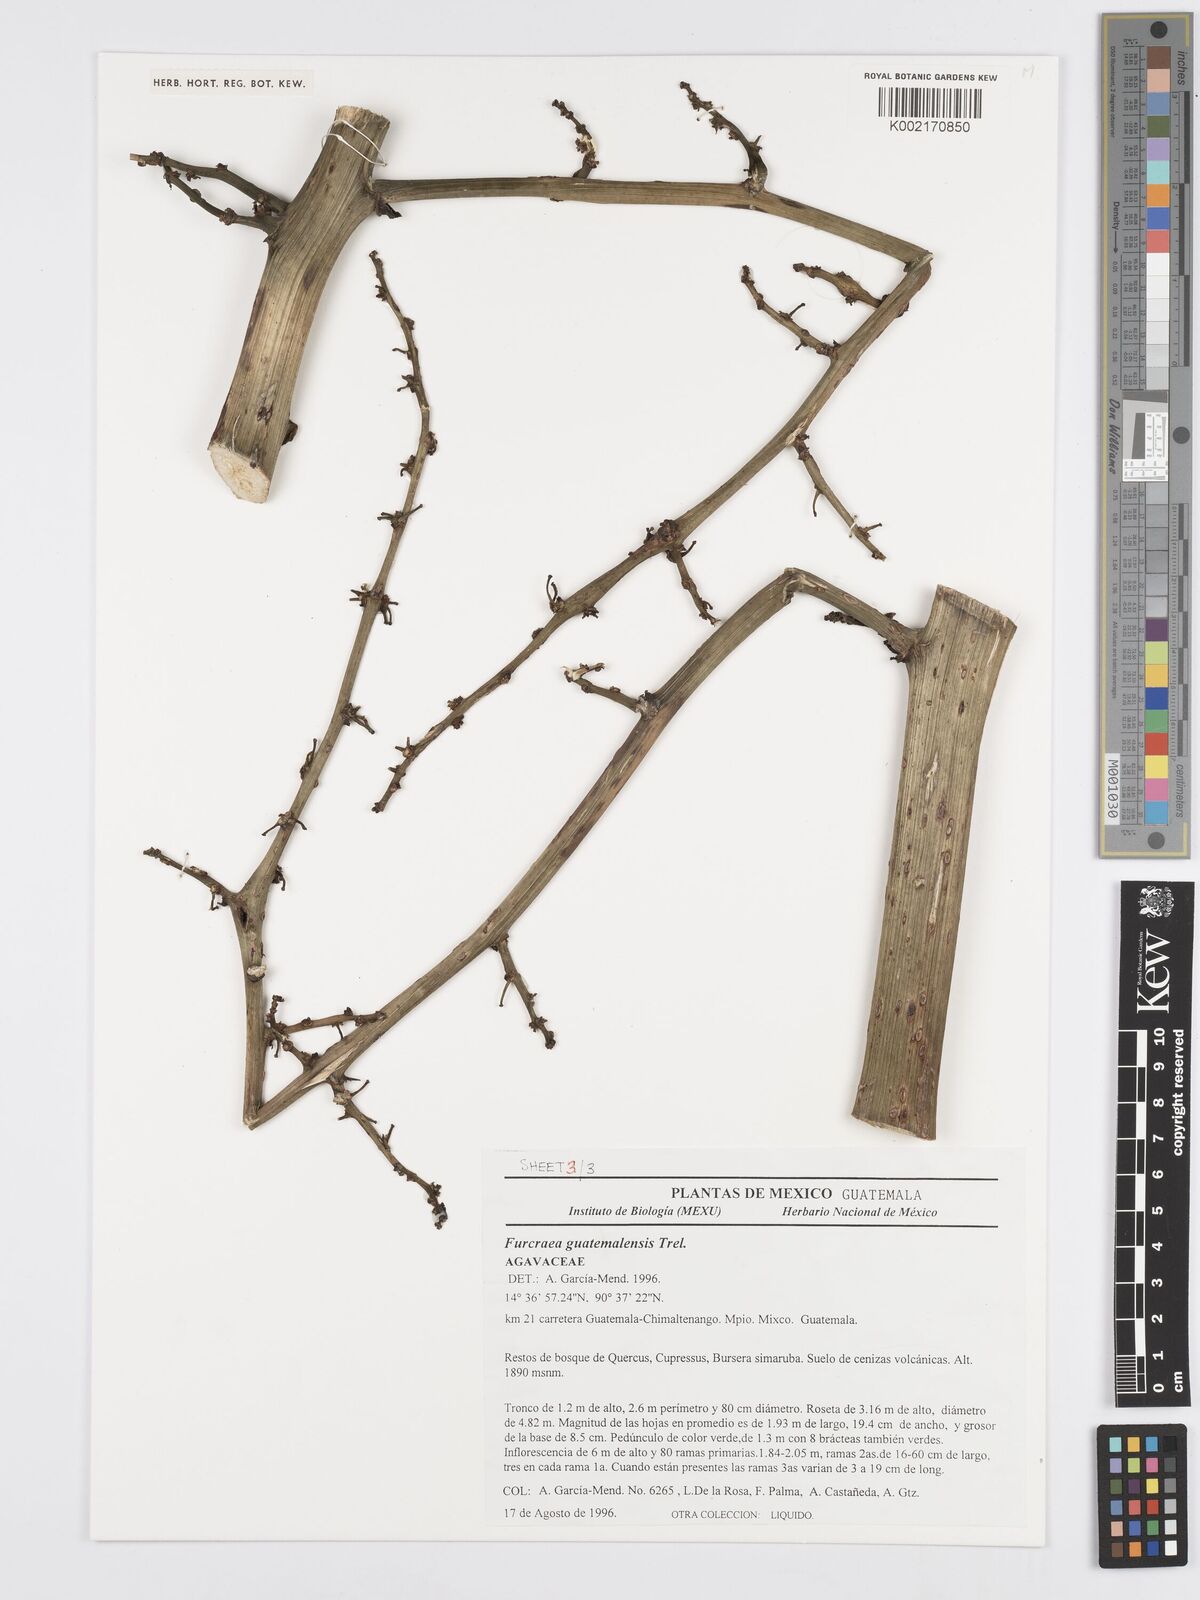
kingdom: Plantae
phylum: Tracheophyta
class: Liliopsida
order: Asparagales
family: Asparagaceae
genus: Furcraea
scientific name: Furcraea guatemalensis
